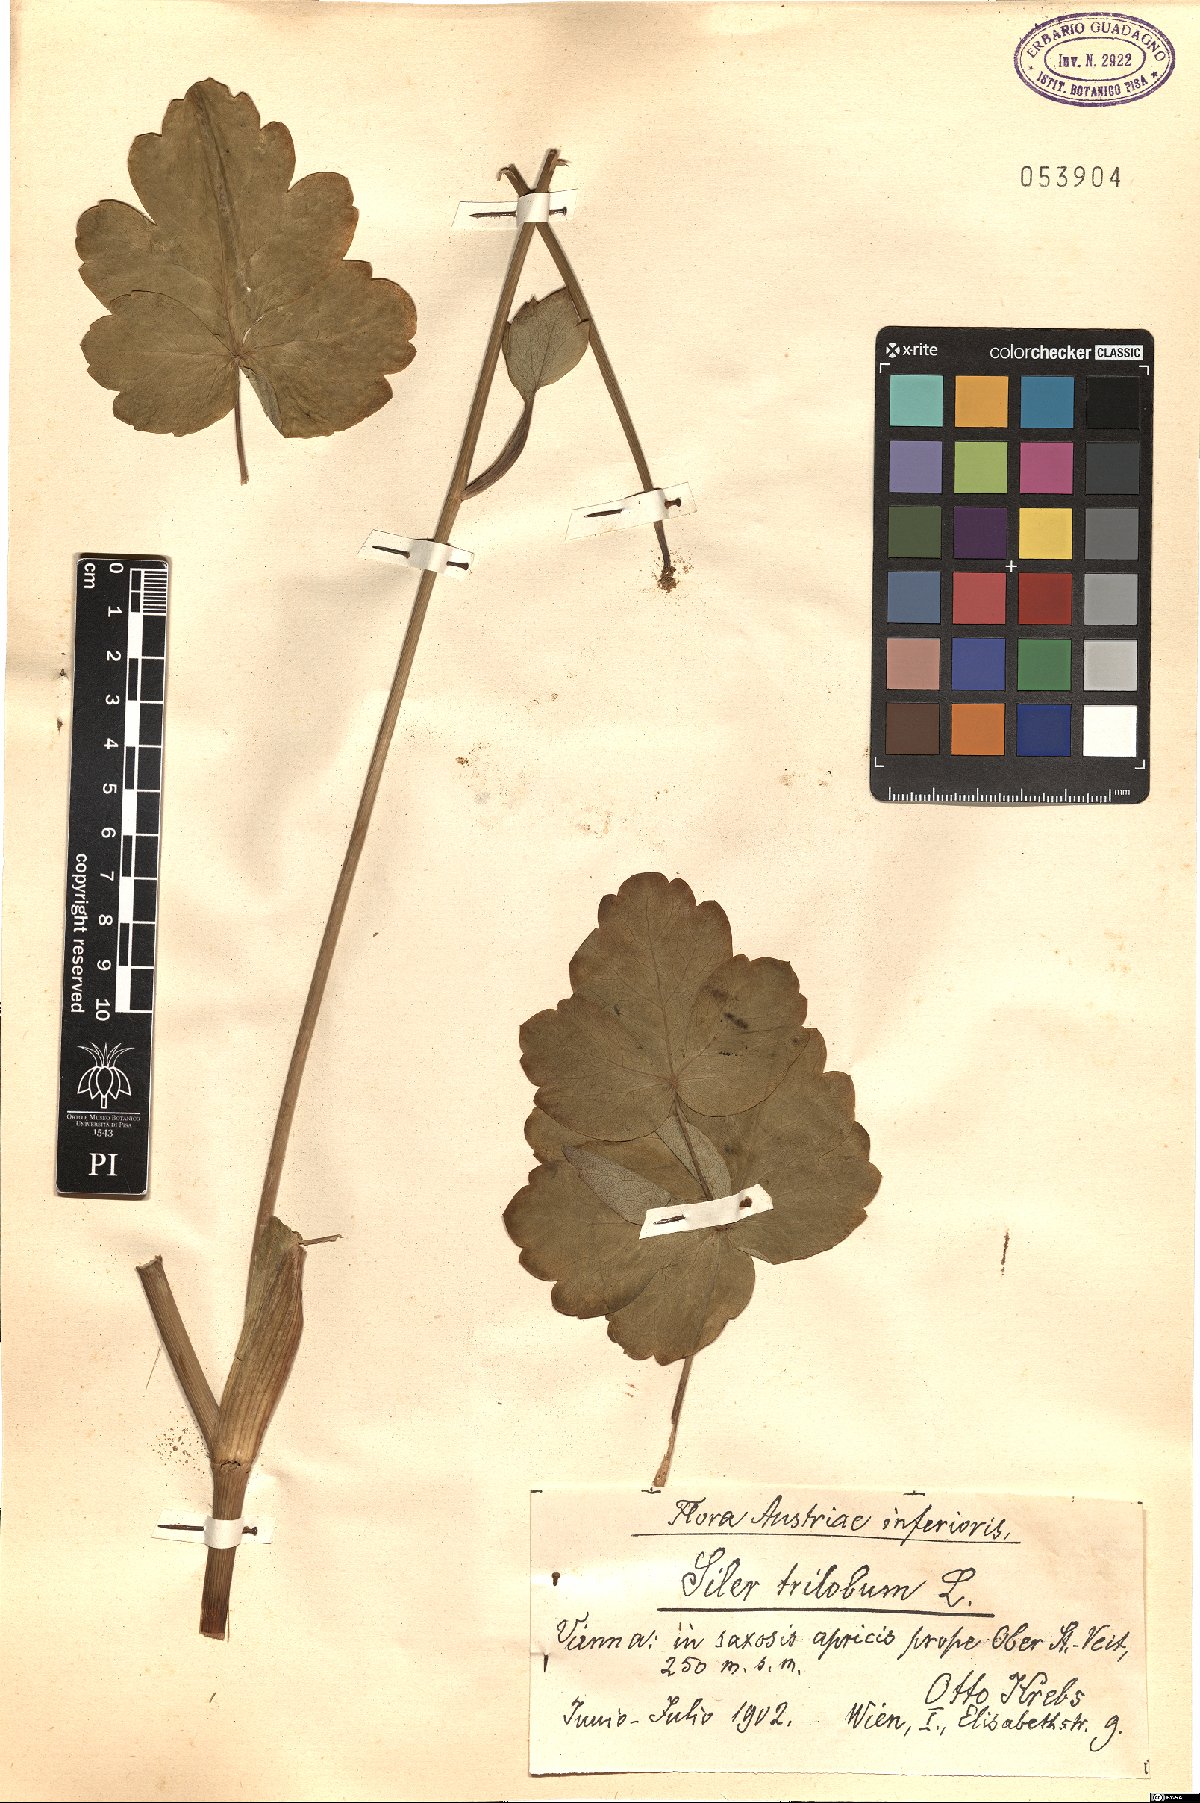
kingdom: Plantae
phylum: Tracheophyta
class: Magnoliopsida
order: Apiales
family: Apiaceae
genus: Laser
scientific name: Laser trilobum
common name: Laser
